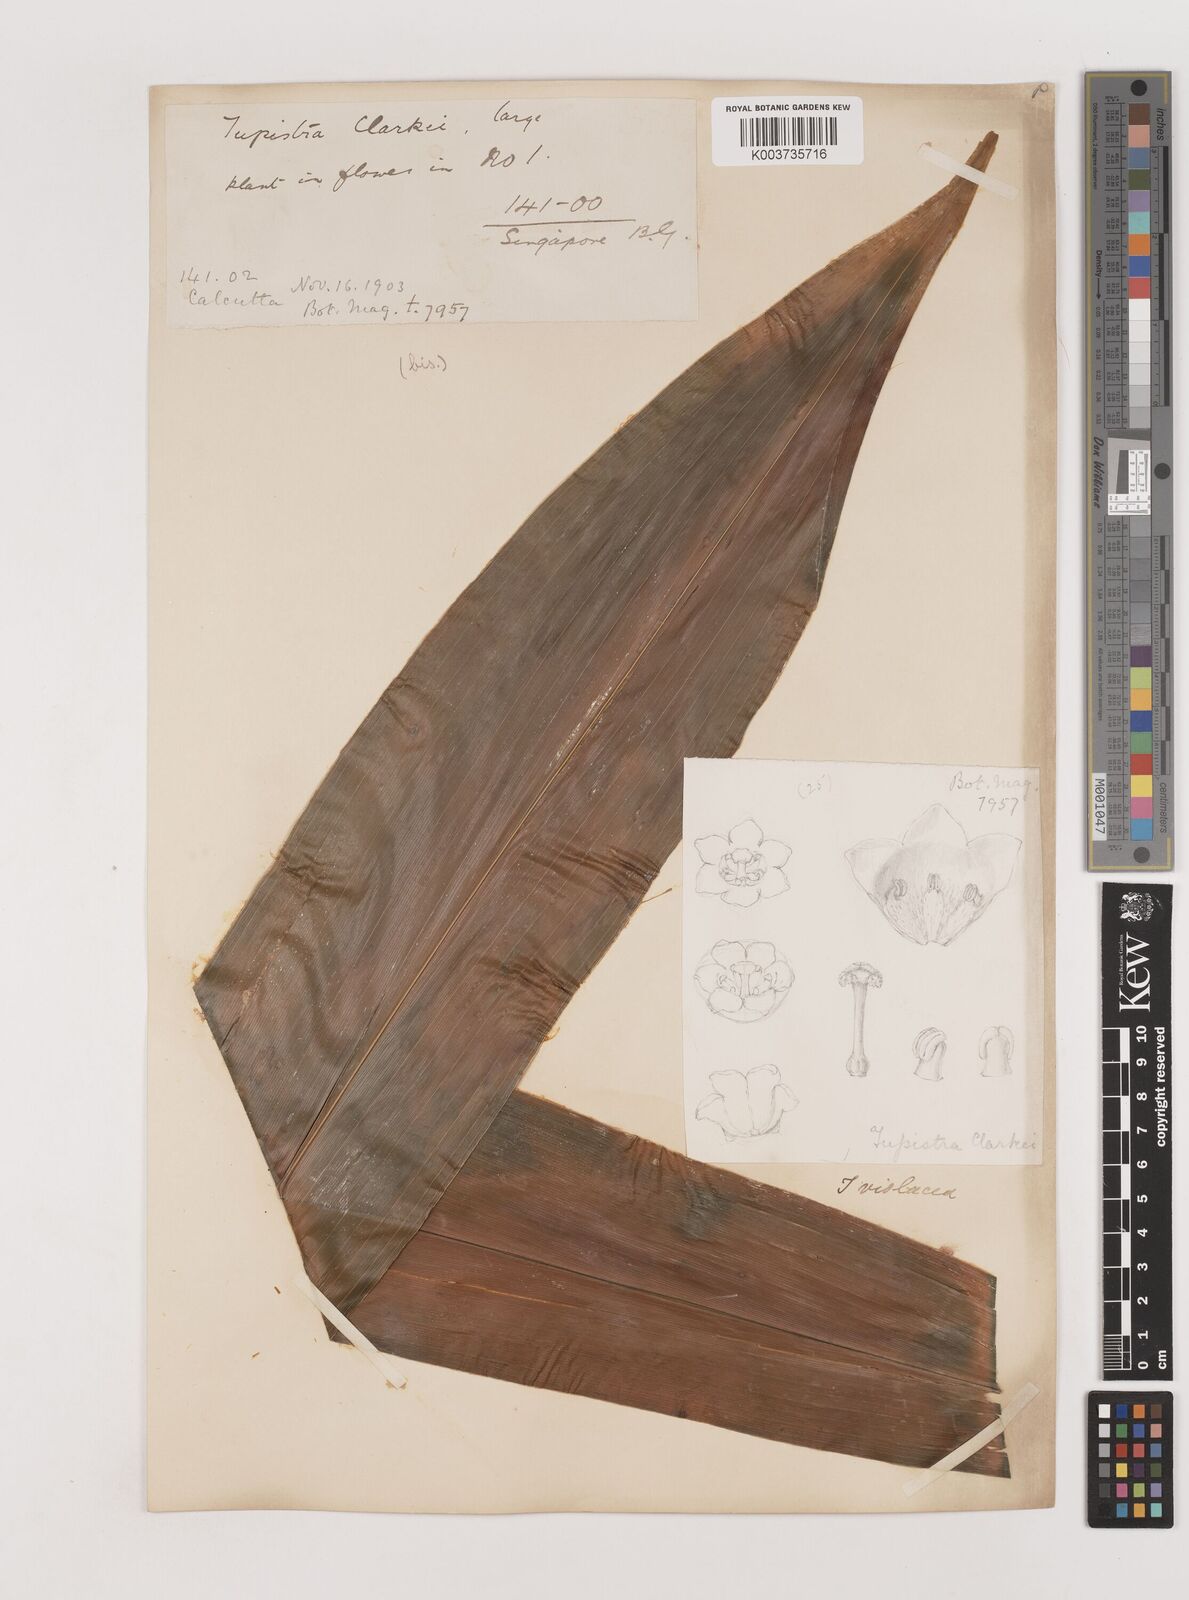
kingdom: Plantae
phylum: Tracheophyta
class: Liliopsida
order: Asparagales
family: Asparagaceae
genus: Tupistra
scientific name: Tupistra violacea
